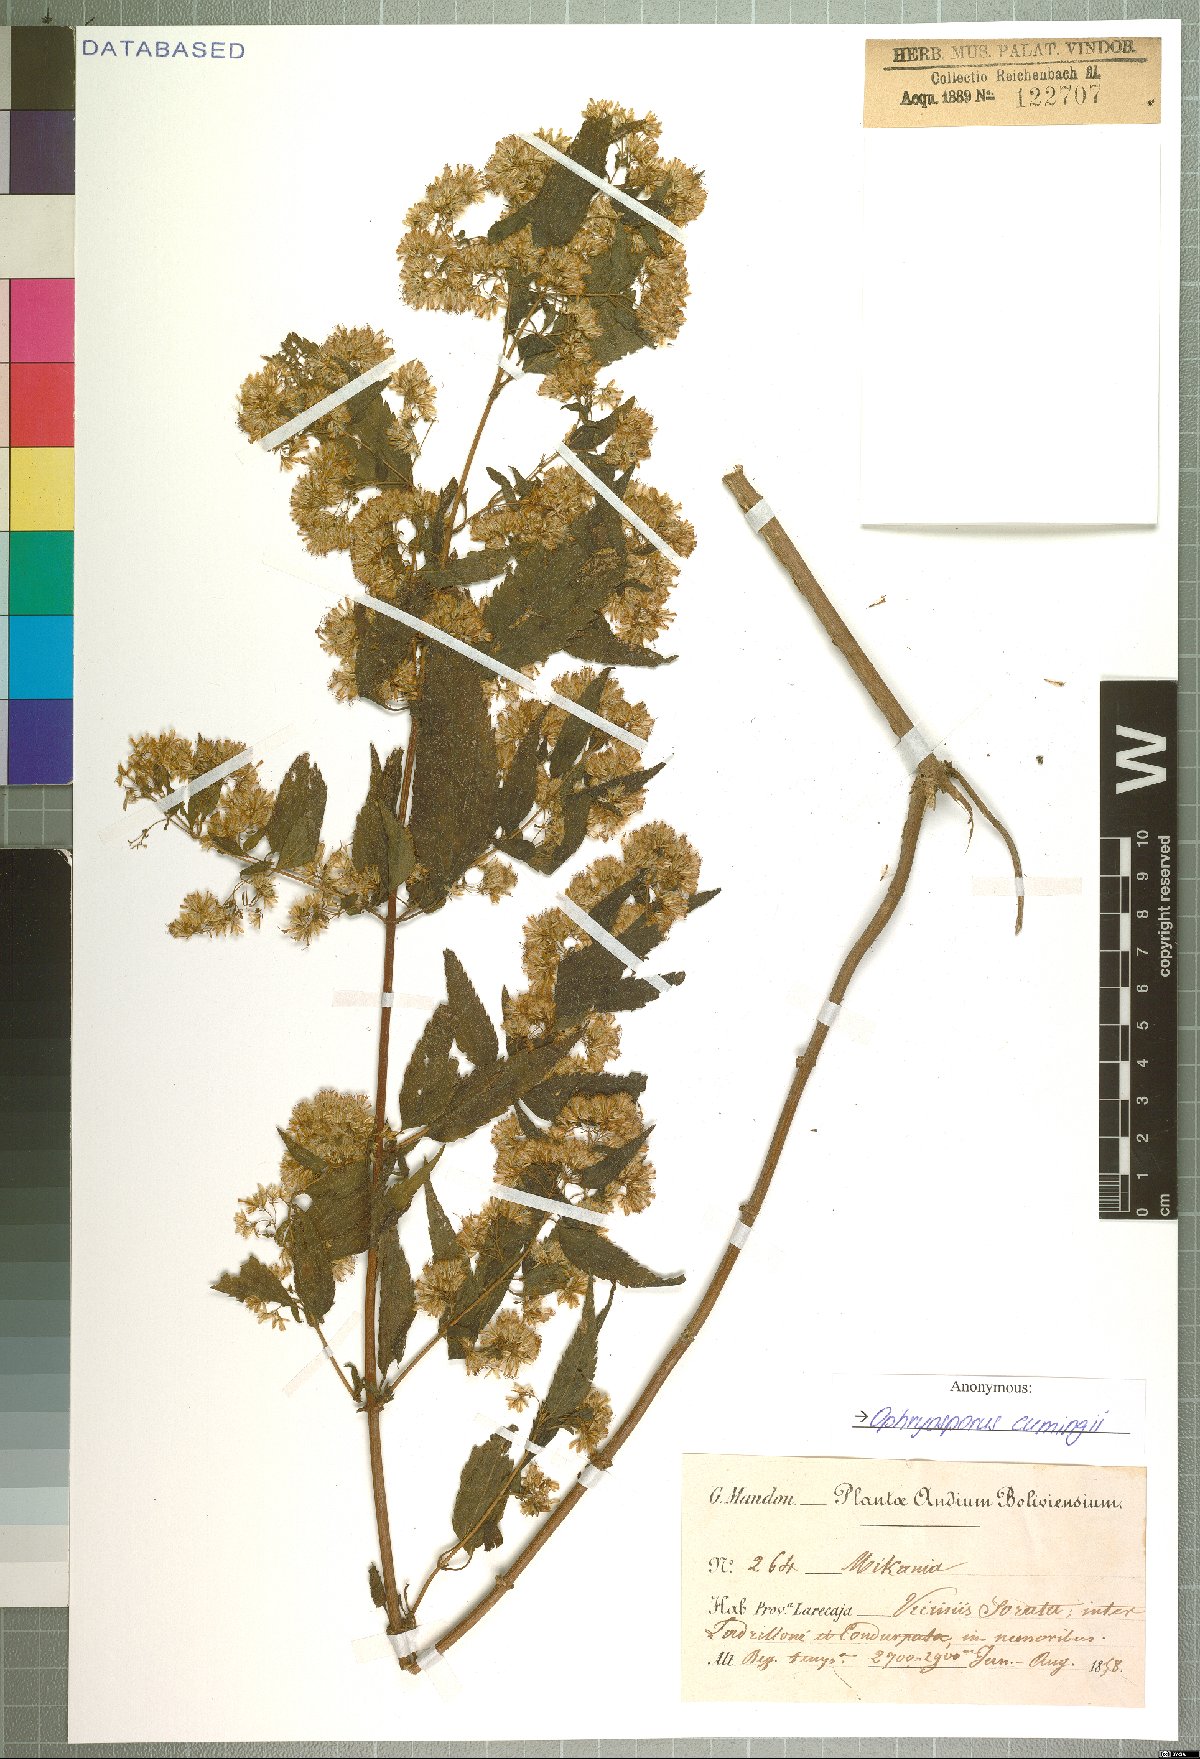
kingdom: Plantae
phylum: Tracheophyta
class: Magnoliopsida
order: Asterales
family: Asteraceae
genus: Ophryosporus
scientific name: Ophryosporus cumingii
